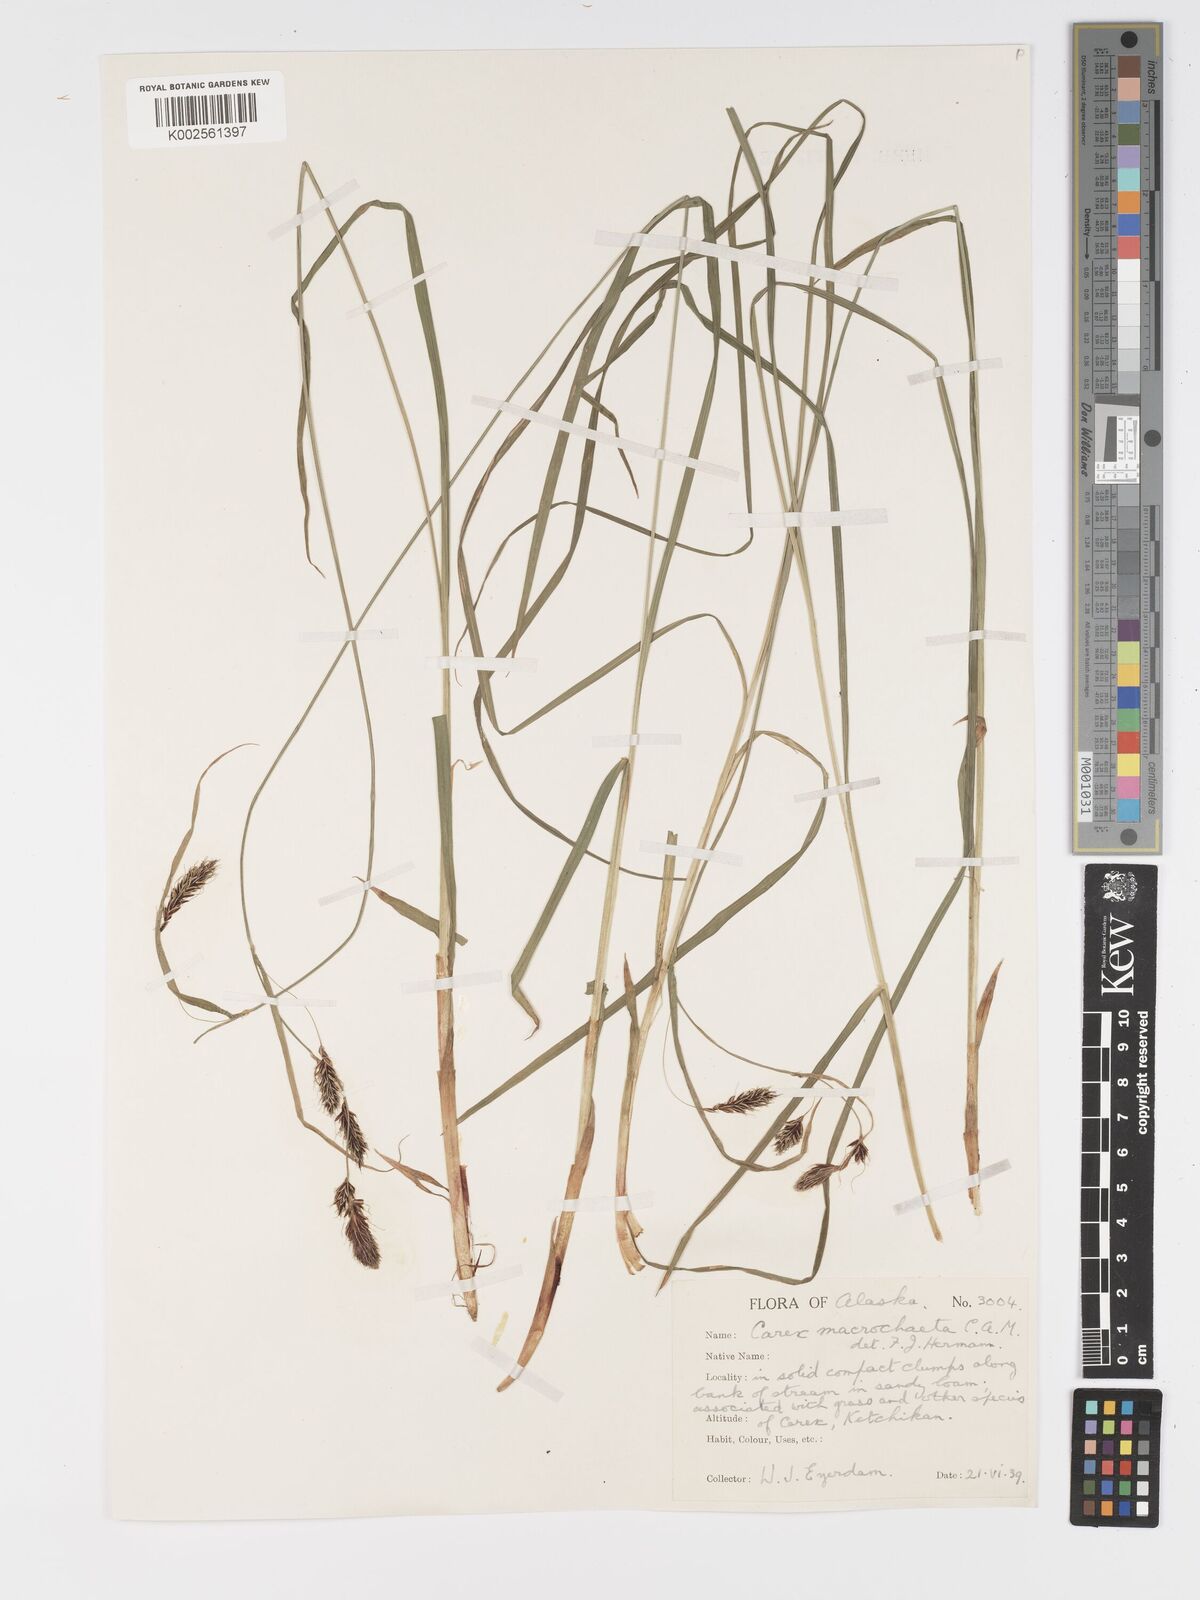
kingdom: Plantae
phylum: Tracheophyta
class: Liliopsida
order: Poales
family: Cyperaceae
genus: Carex
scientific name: Carex macrochaeta
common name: Alaska large awn sedge
